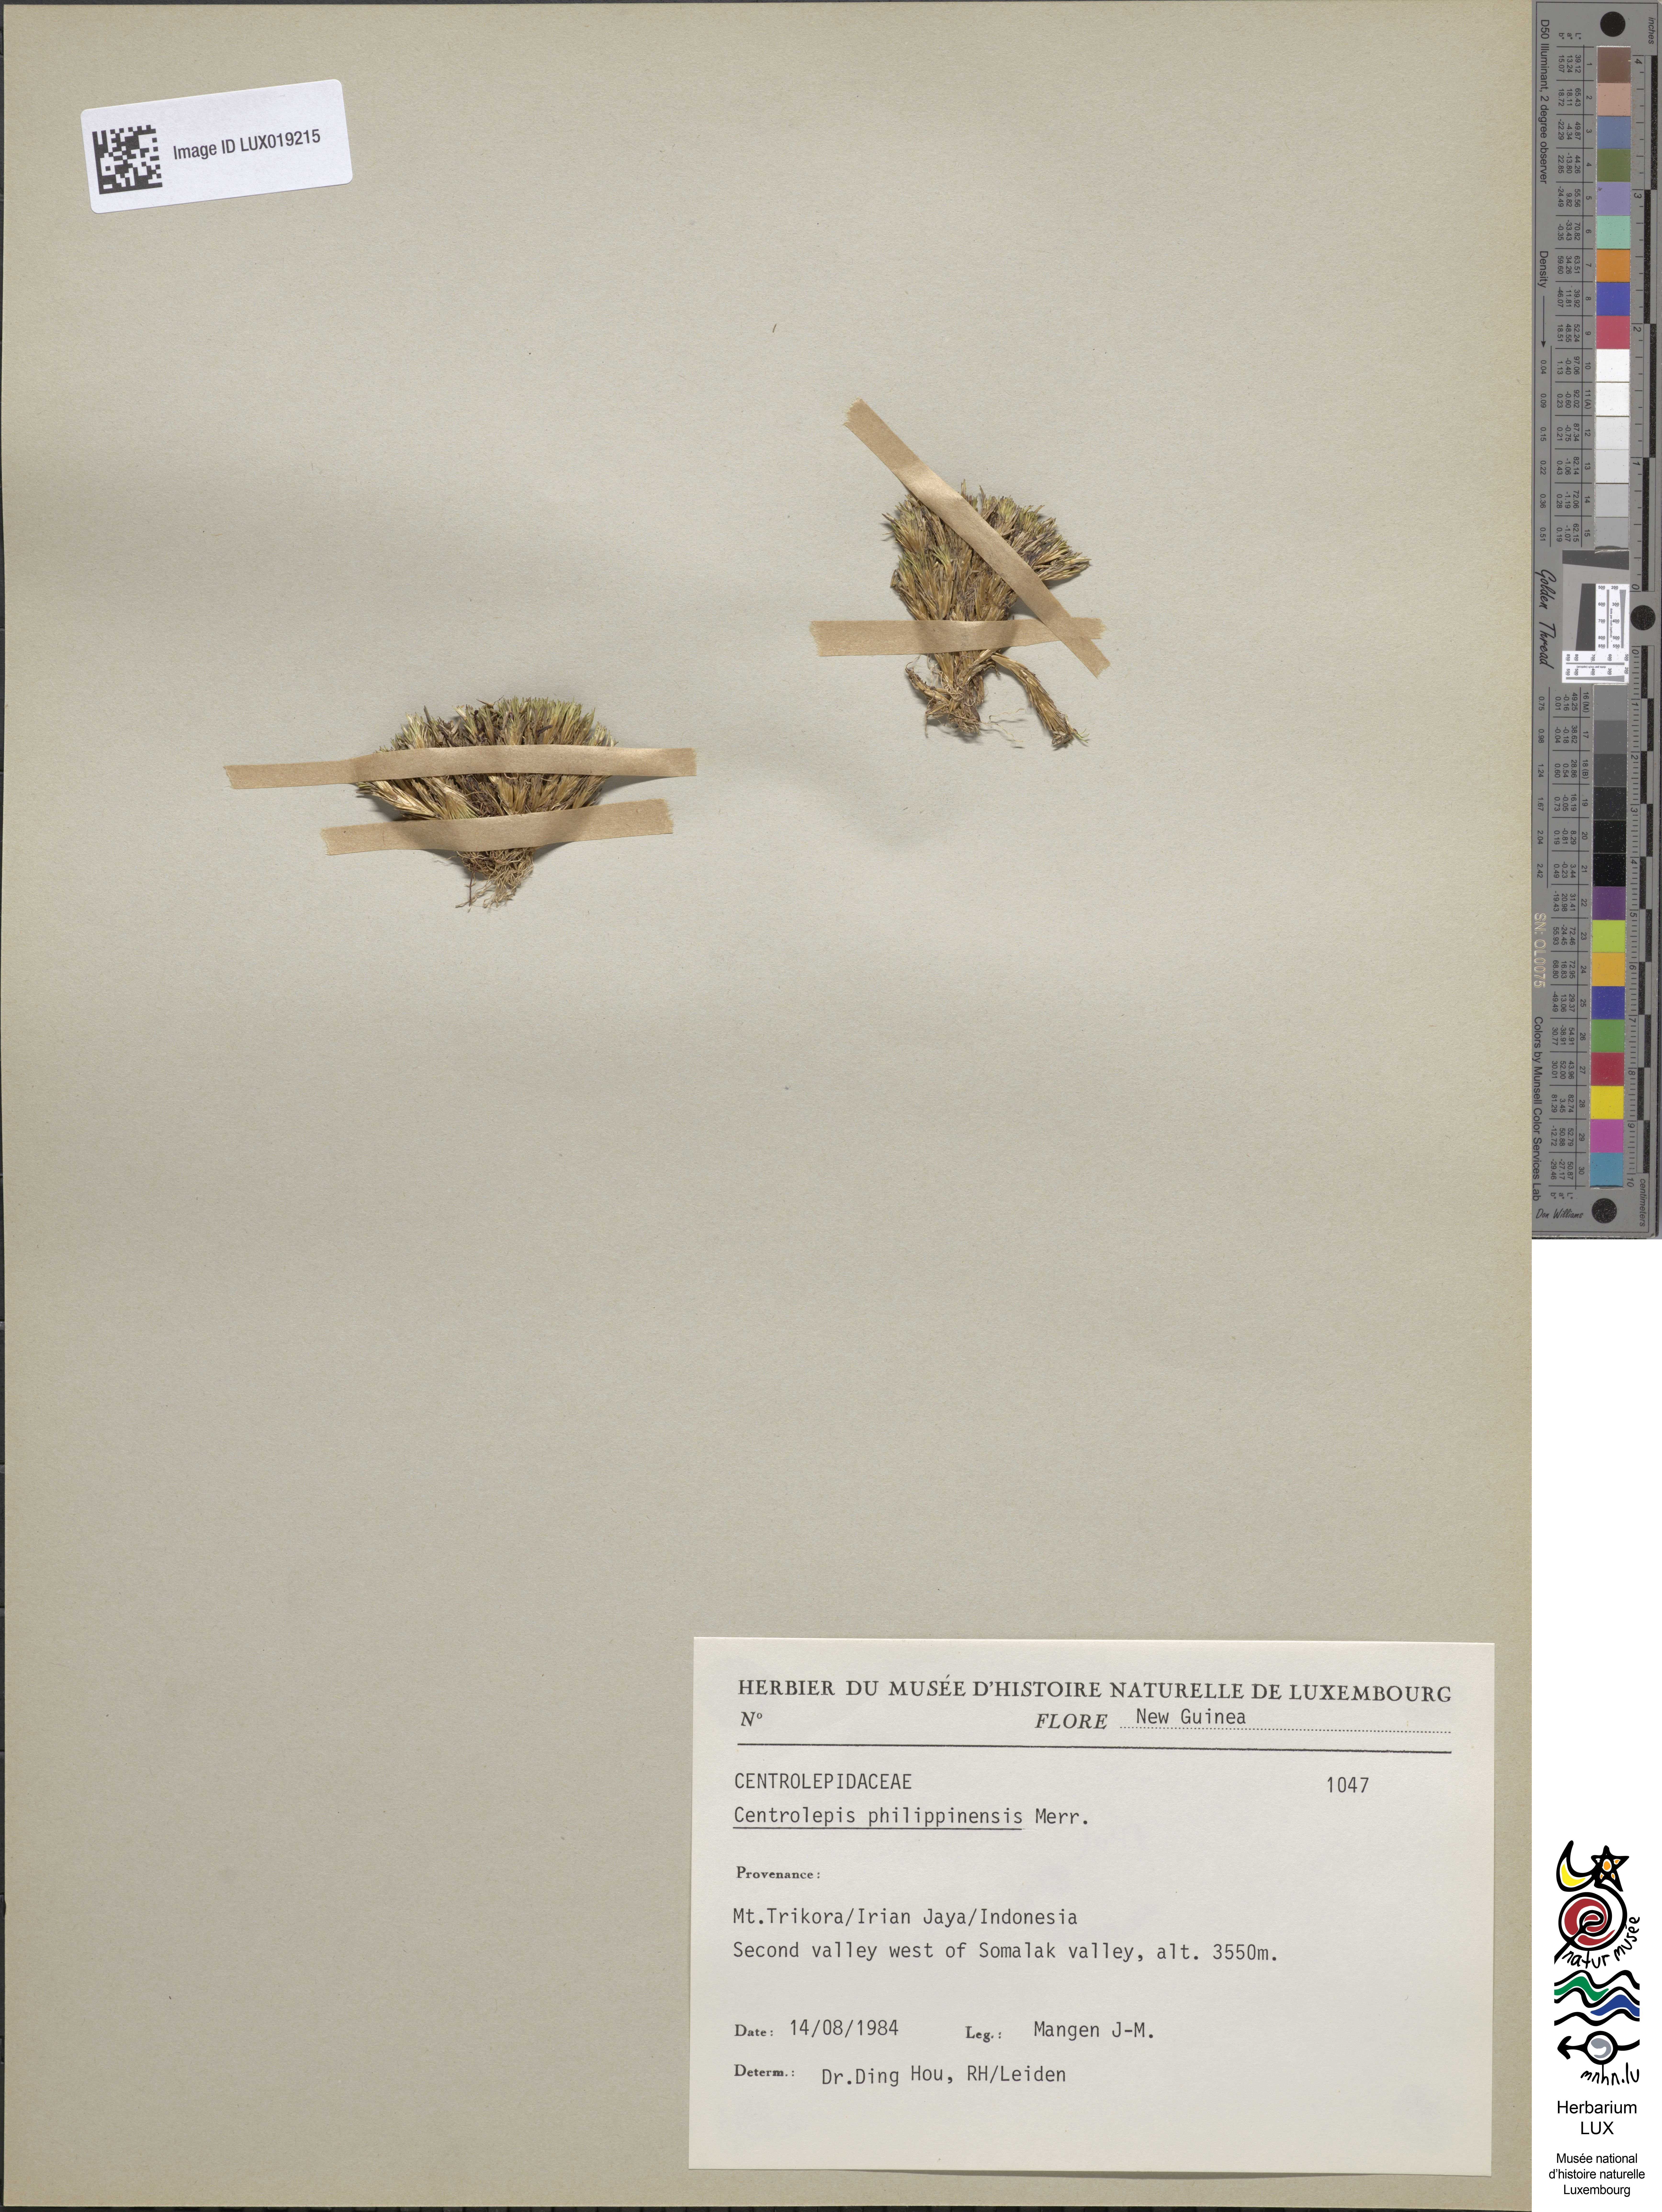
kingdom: Plantae
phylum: Tracheophyta
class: Liliopsida
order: Poales
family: Restionaceae
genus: Centrolepis
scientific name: Centrolepis philippinensis
